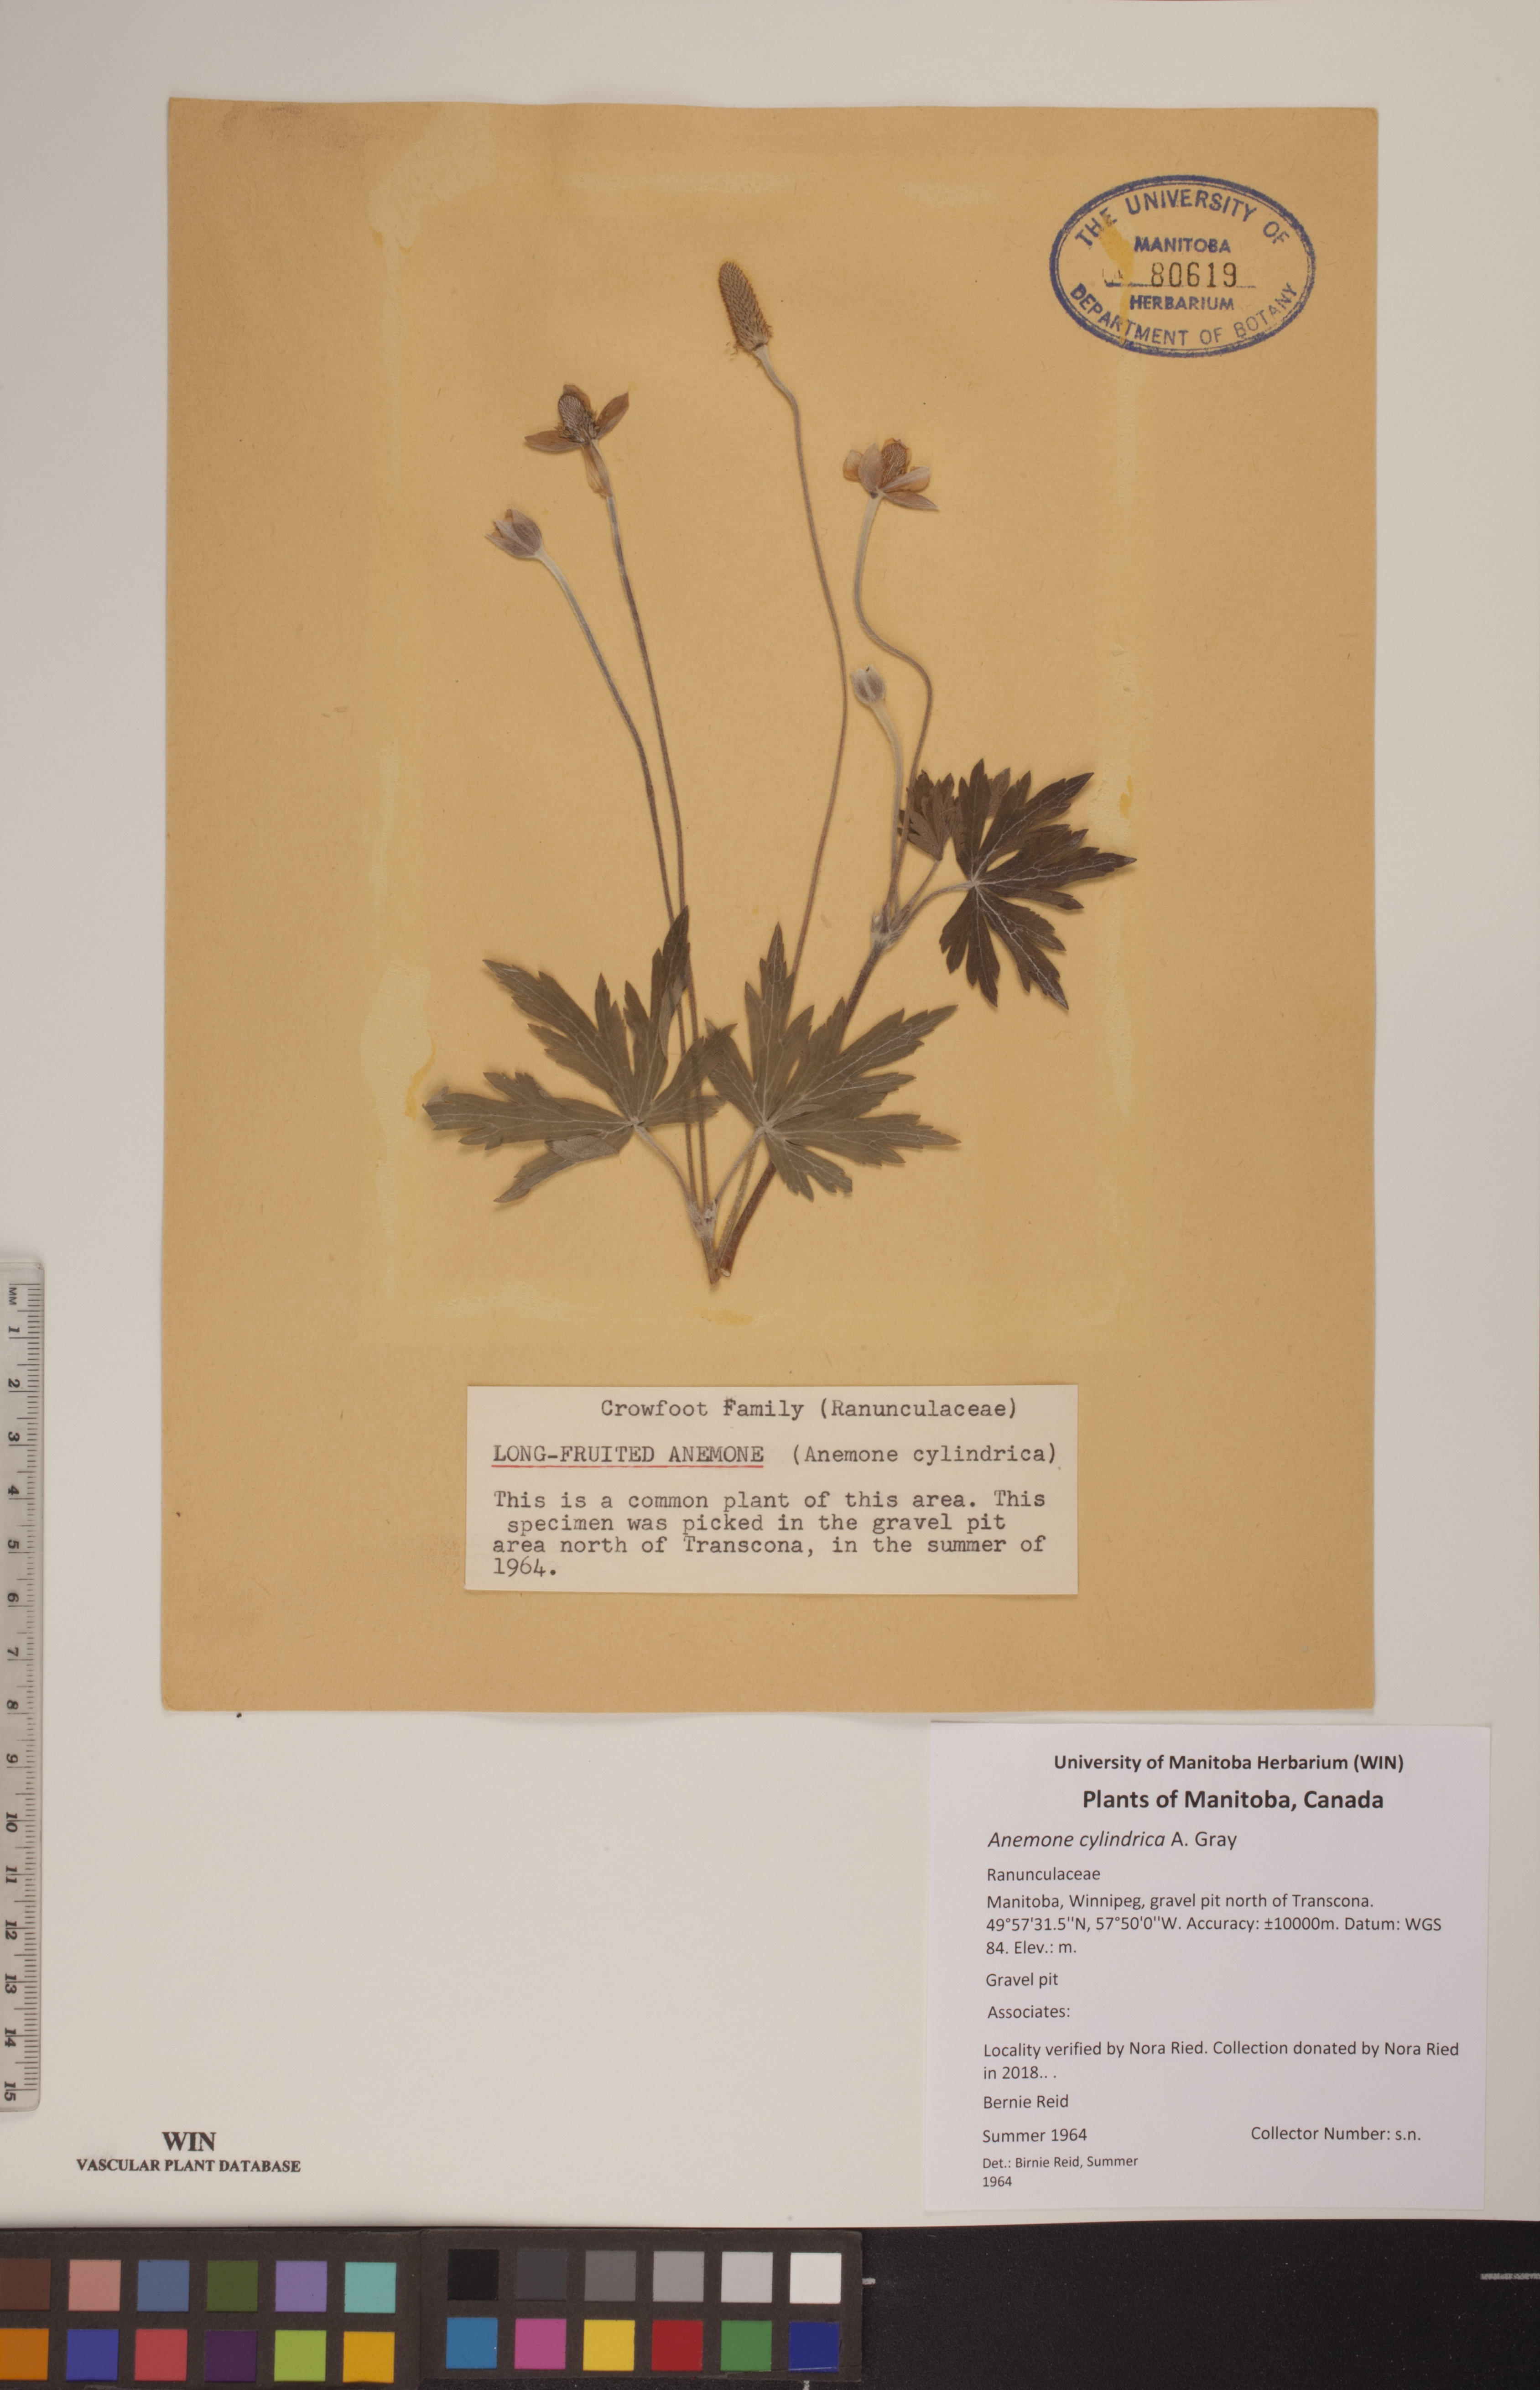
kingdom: Plantae
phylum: Tracheophyta
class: Magnoliopsida
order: Ranunculales
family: Ranunculaceae
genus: Anemone
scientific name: Anemone cylindrica
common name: Candle anemone
